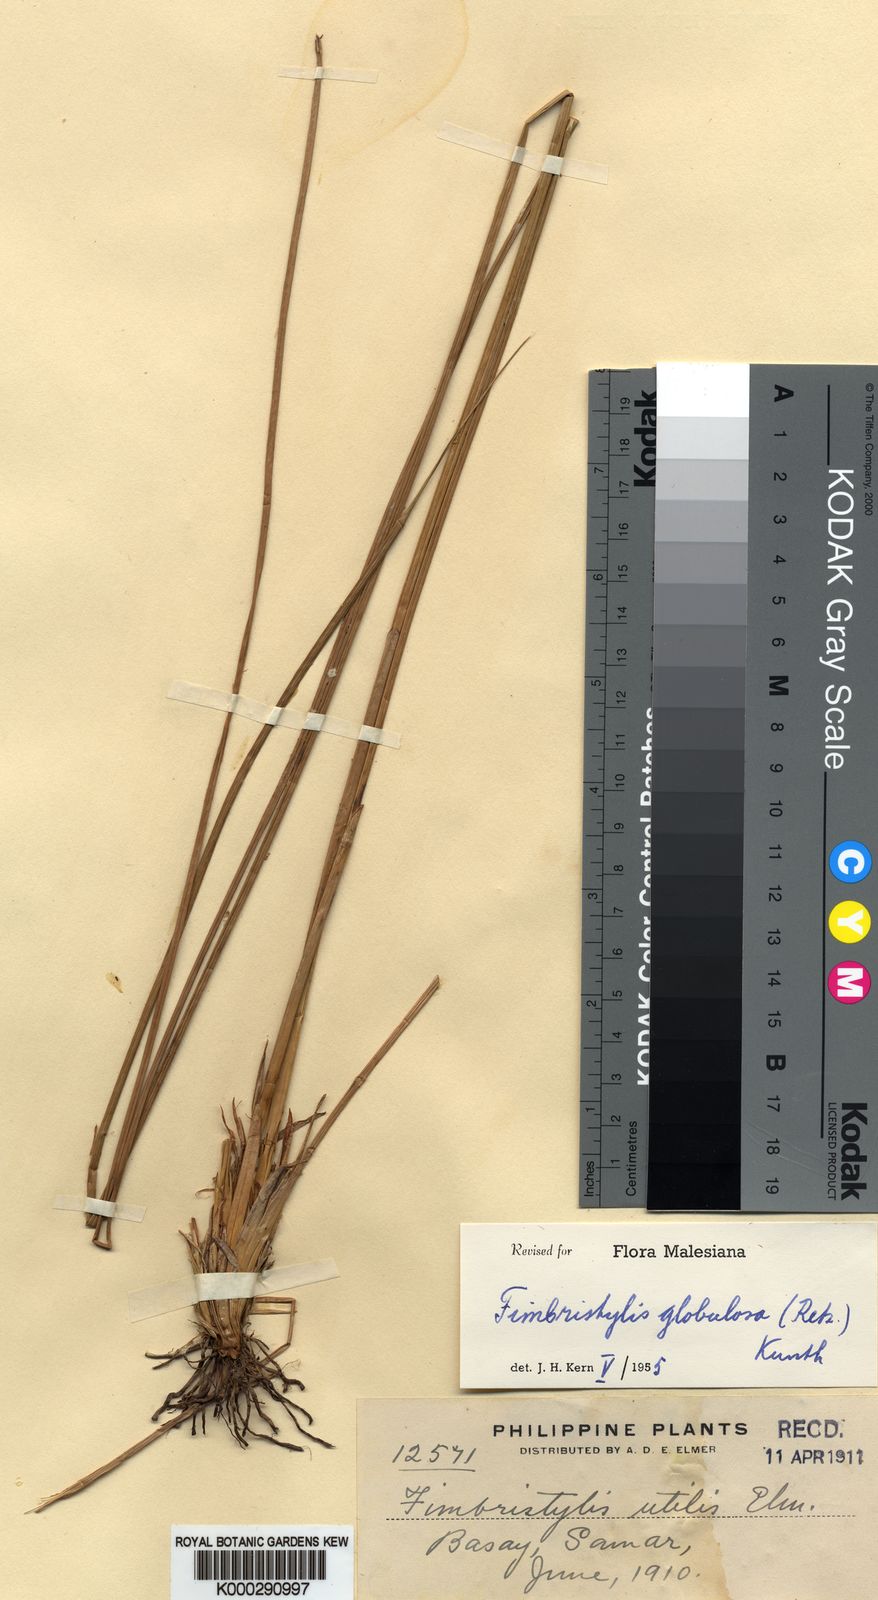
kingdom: Plantae
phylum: Tracheophyta
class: Liliopsida
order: Poales
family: Cyperaceae
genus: Fimbristylis
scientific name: Fimbristylis umbellaris
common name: Globular fimbristylis
